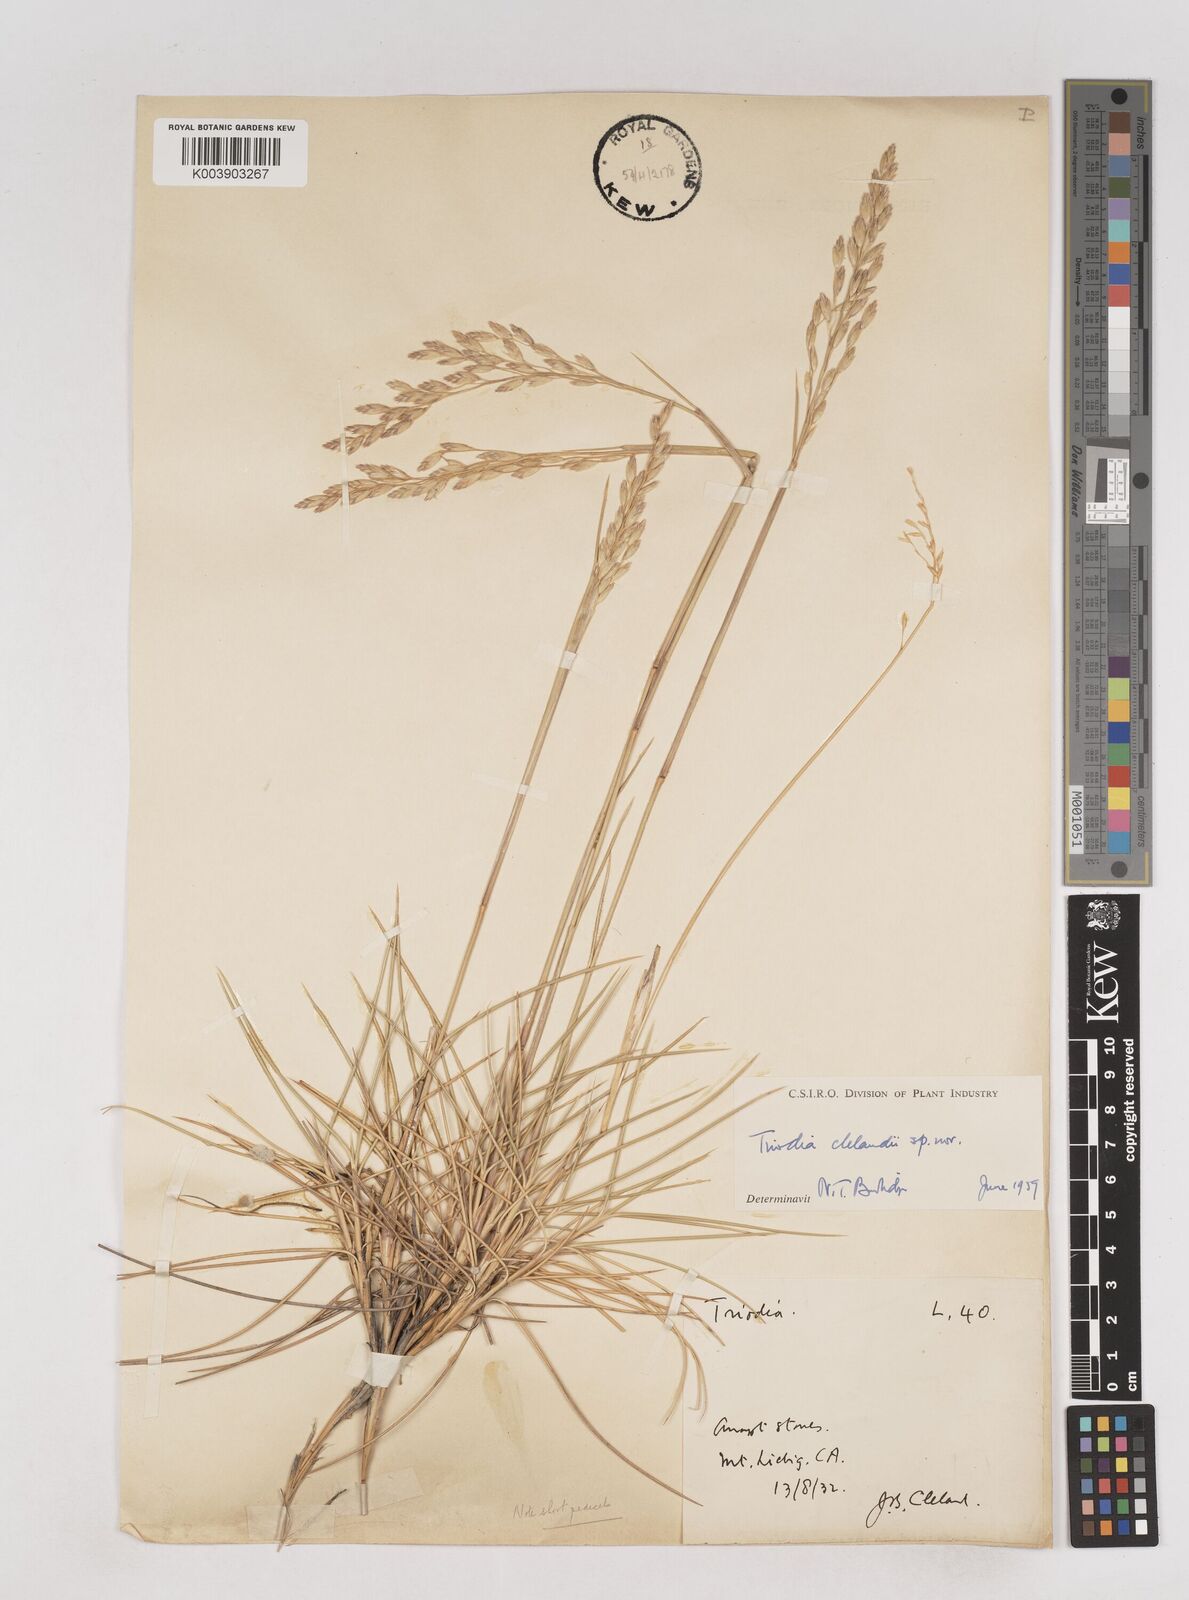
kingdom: Plantae
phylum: Tracheophyta
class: Liliopsida
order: Poales
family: Poaceae
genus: Triodia
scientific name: Triodia brizoides
